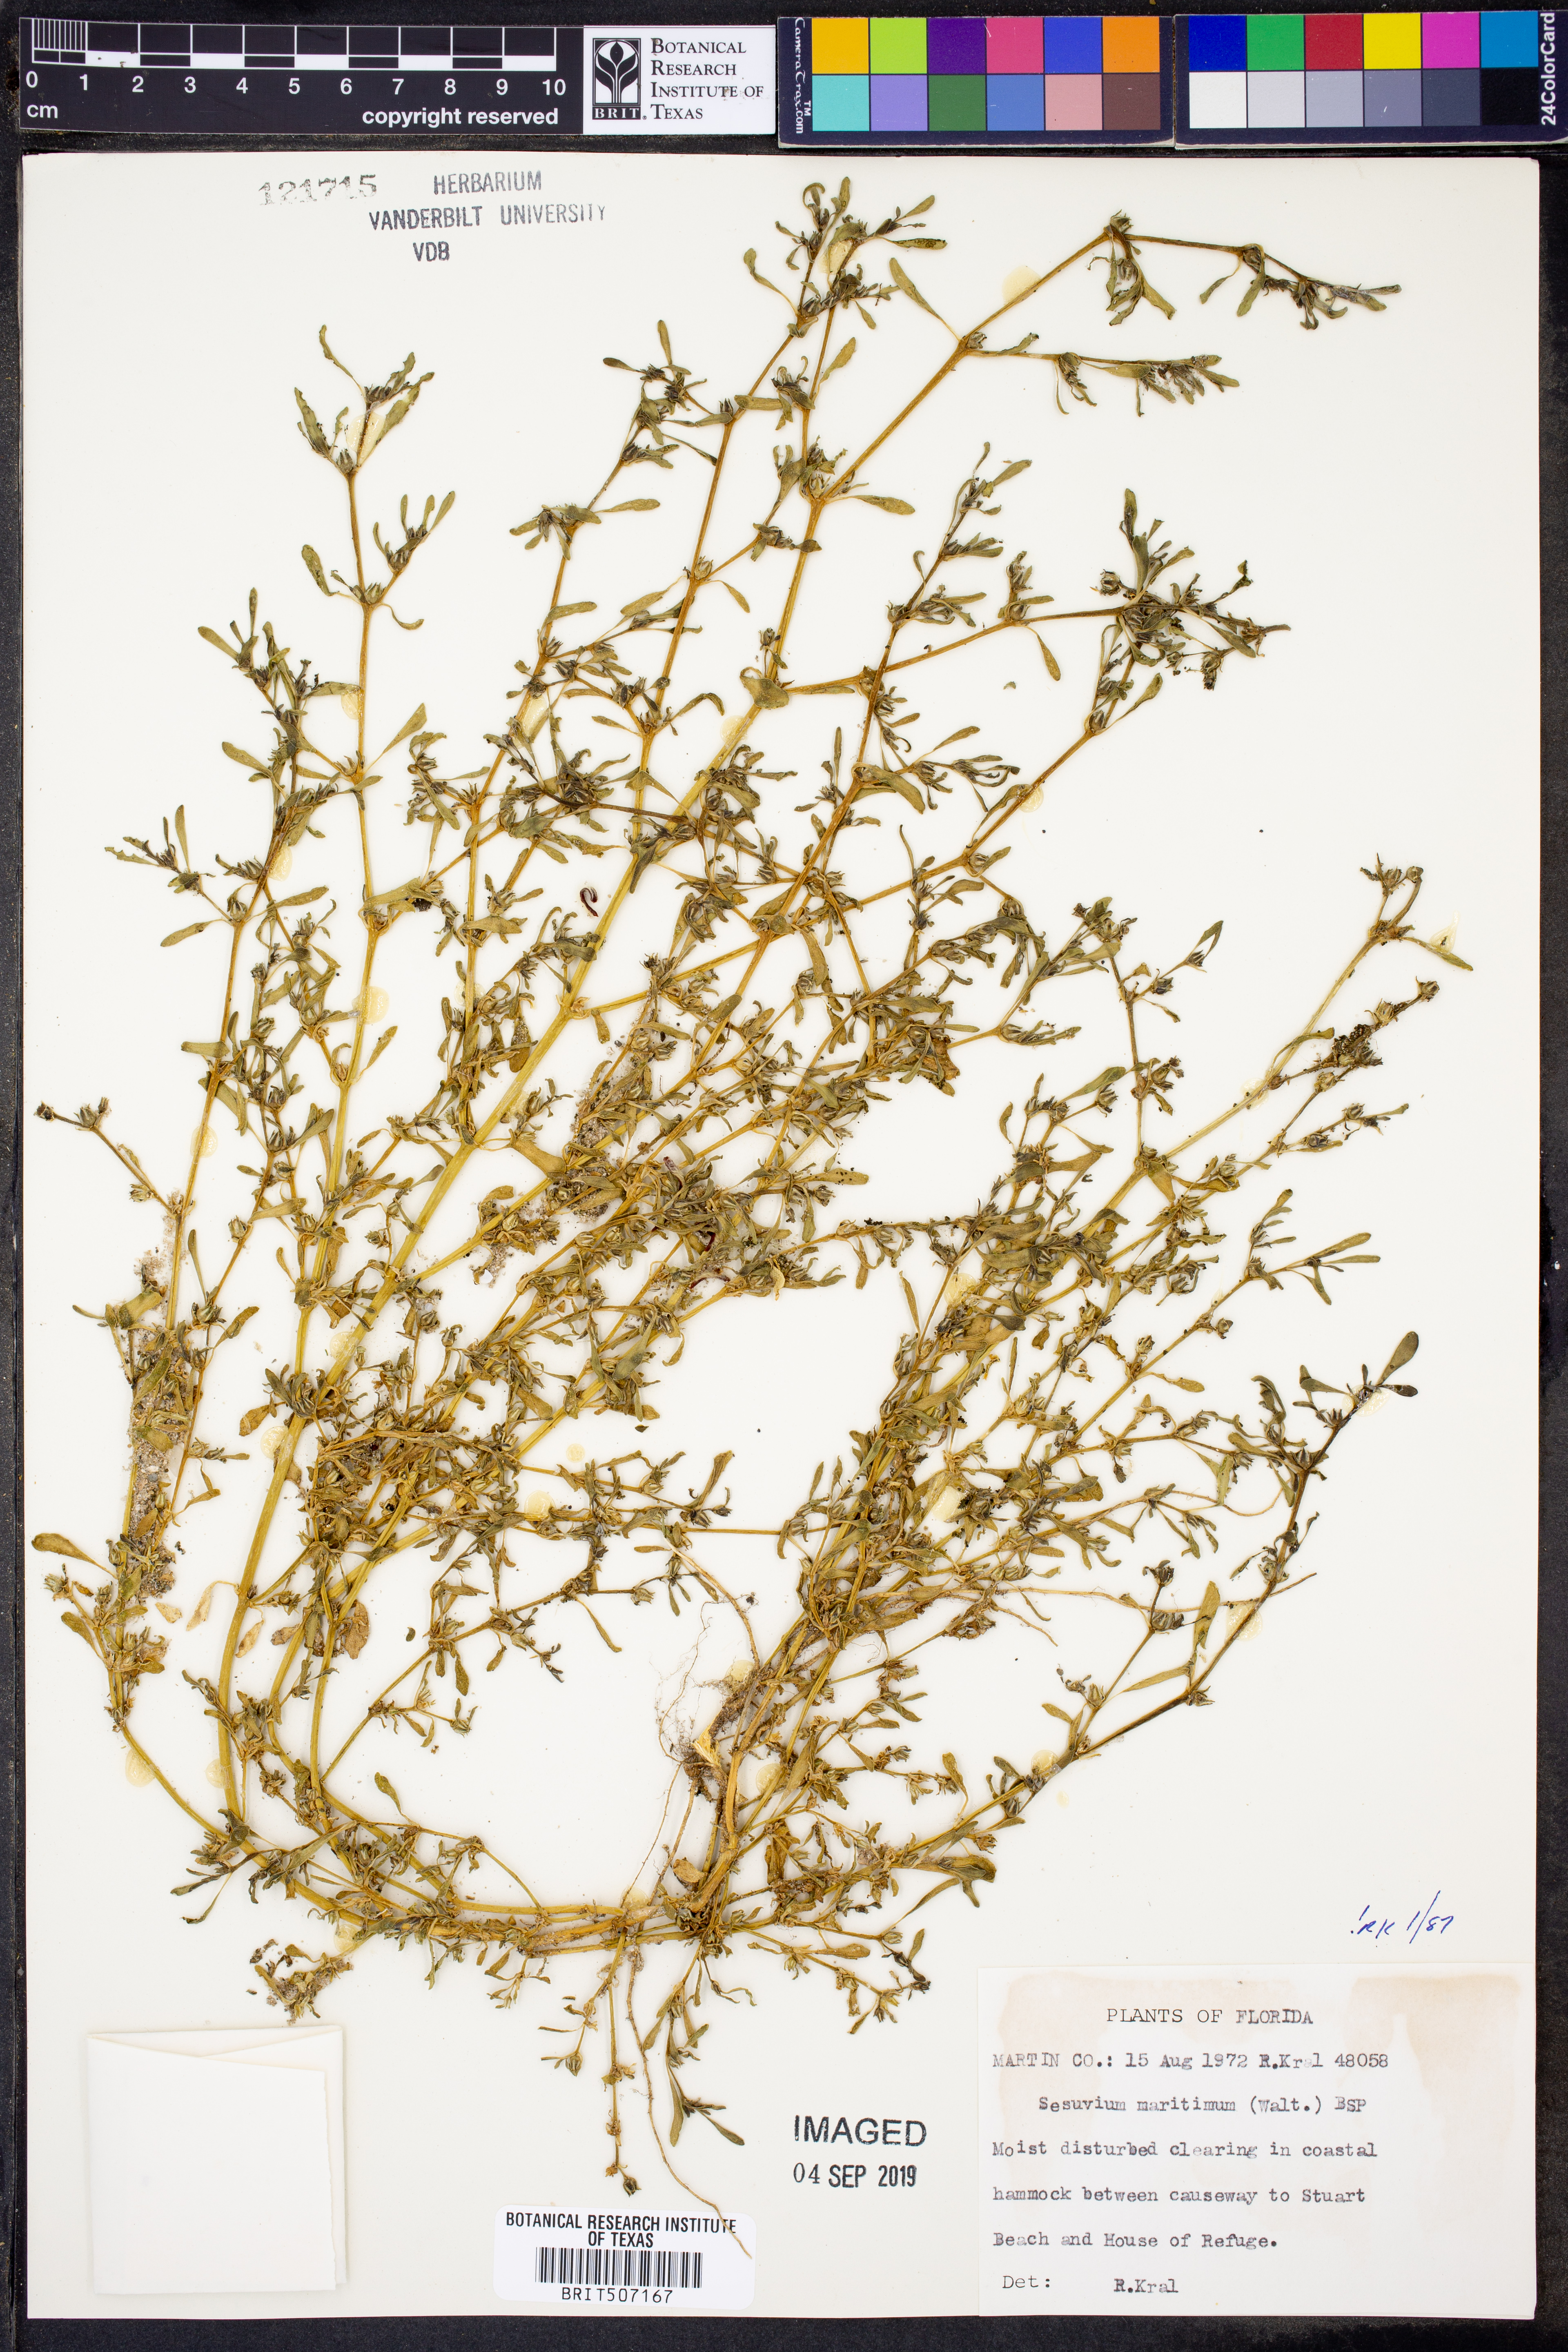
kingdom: Plantae
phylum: Tracheophyta
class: Magnoliopsida
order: Caryophyllales
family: Aizoaceae
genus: Sesuvium
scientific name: Sesuvium maritimum
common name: Slender sea-purslane
